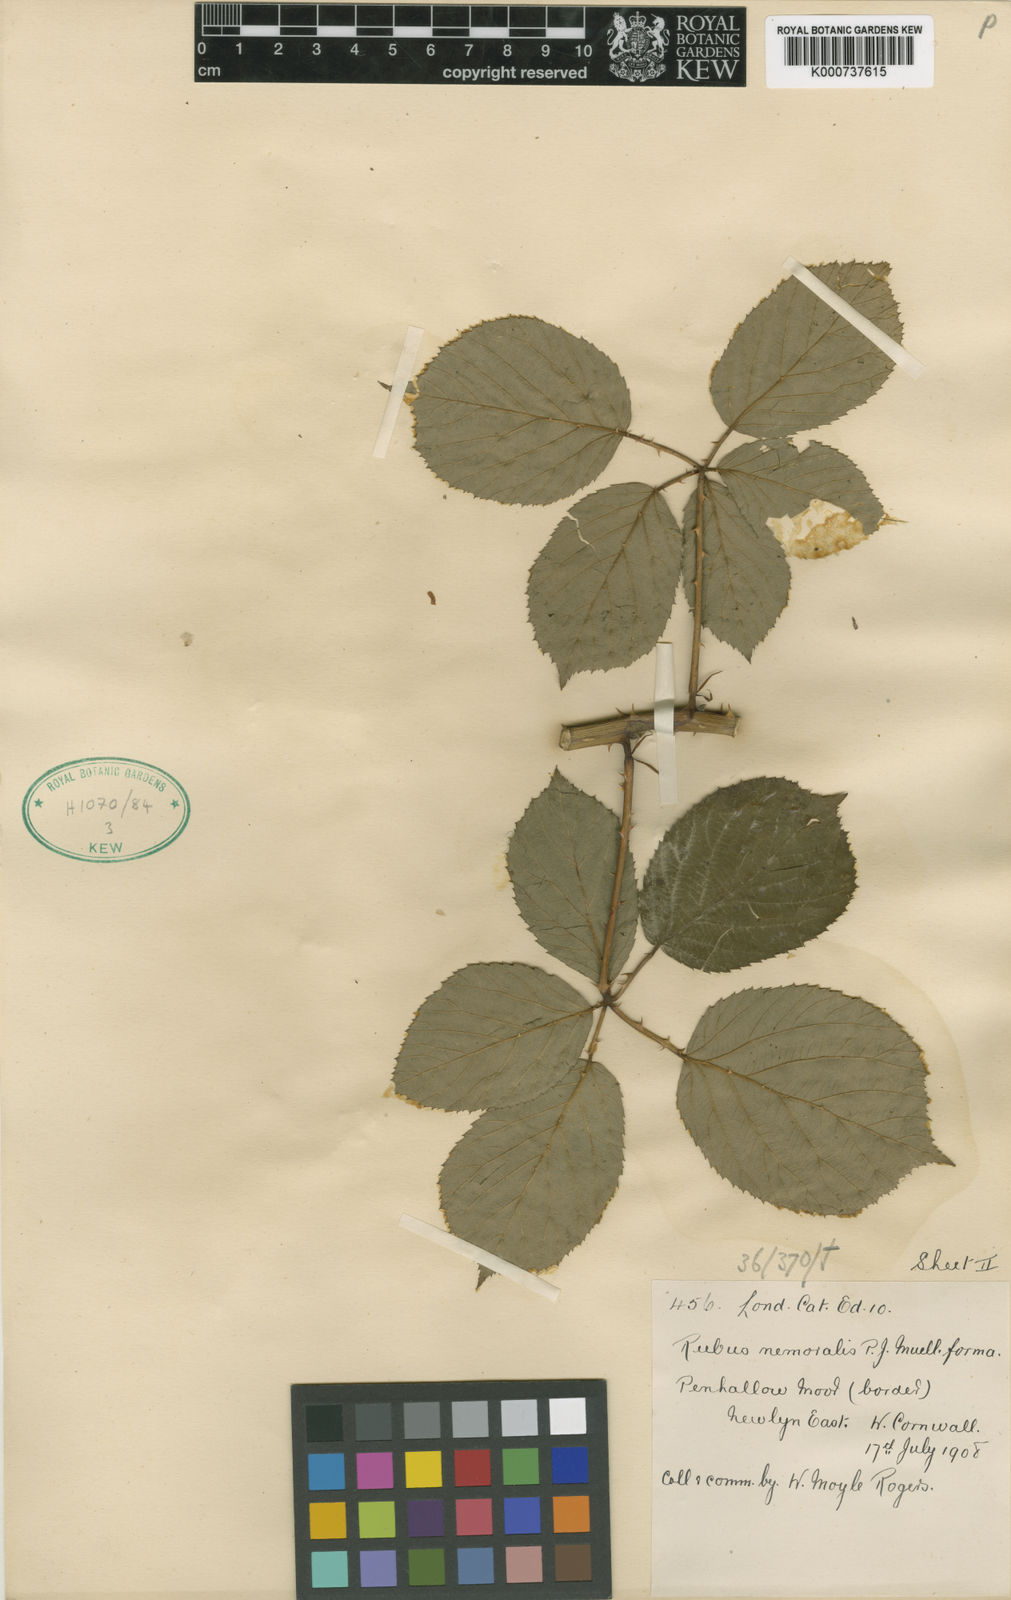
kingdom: Plantae
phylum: Tracheophyta
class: Magnoliopsida
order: Rosales
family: Rosaceae
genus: Rubus
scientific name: Rubus cornubiensis
